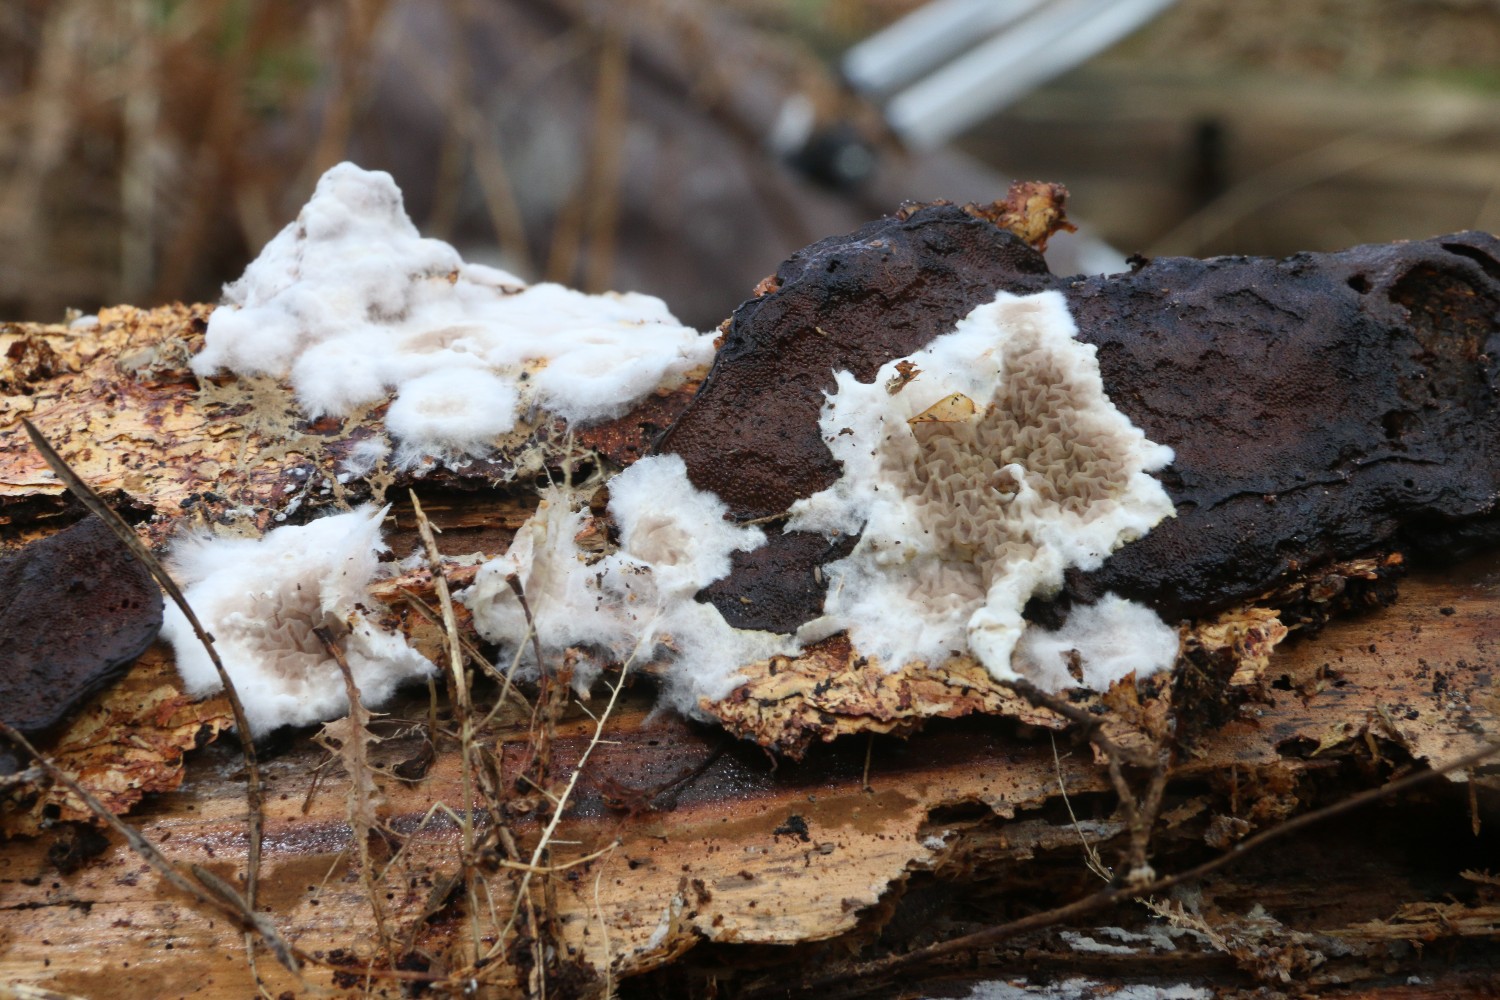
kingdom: Fungi
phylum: Basidiomycota
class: Agaricomycetes
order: Boletales
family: Serpulaceae
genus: Serpula
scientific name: Serpula himantioides
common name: tyndkødet hussvamp
